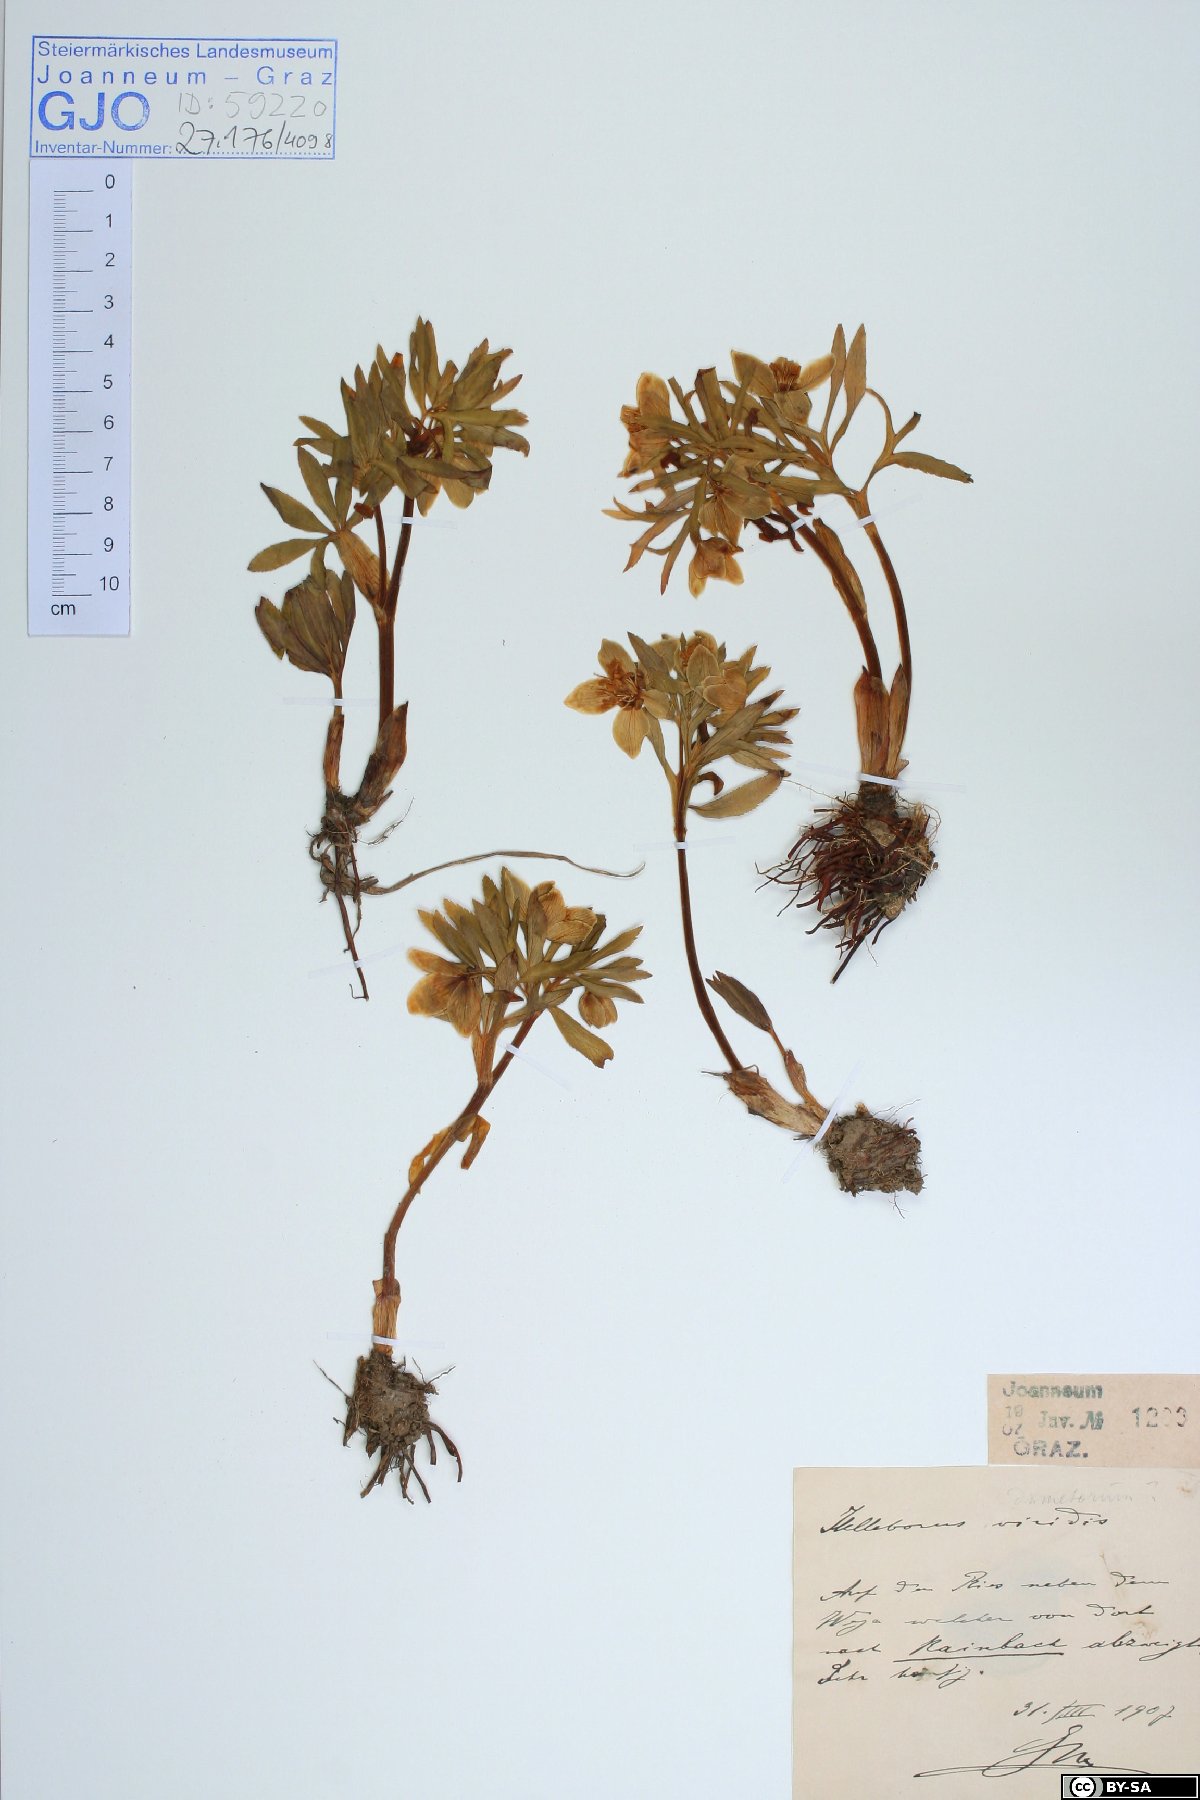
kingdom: Plantae
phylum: Tracheophyta
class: Magnoliopsida
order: Ranunculales
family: Ranunculaceae
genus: Helleborus
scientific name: Helleborus dumetorum
